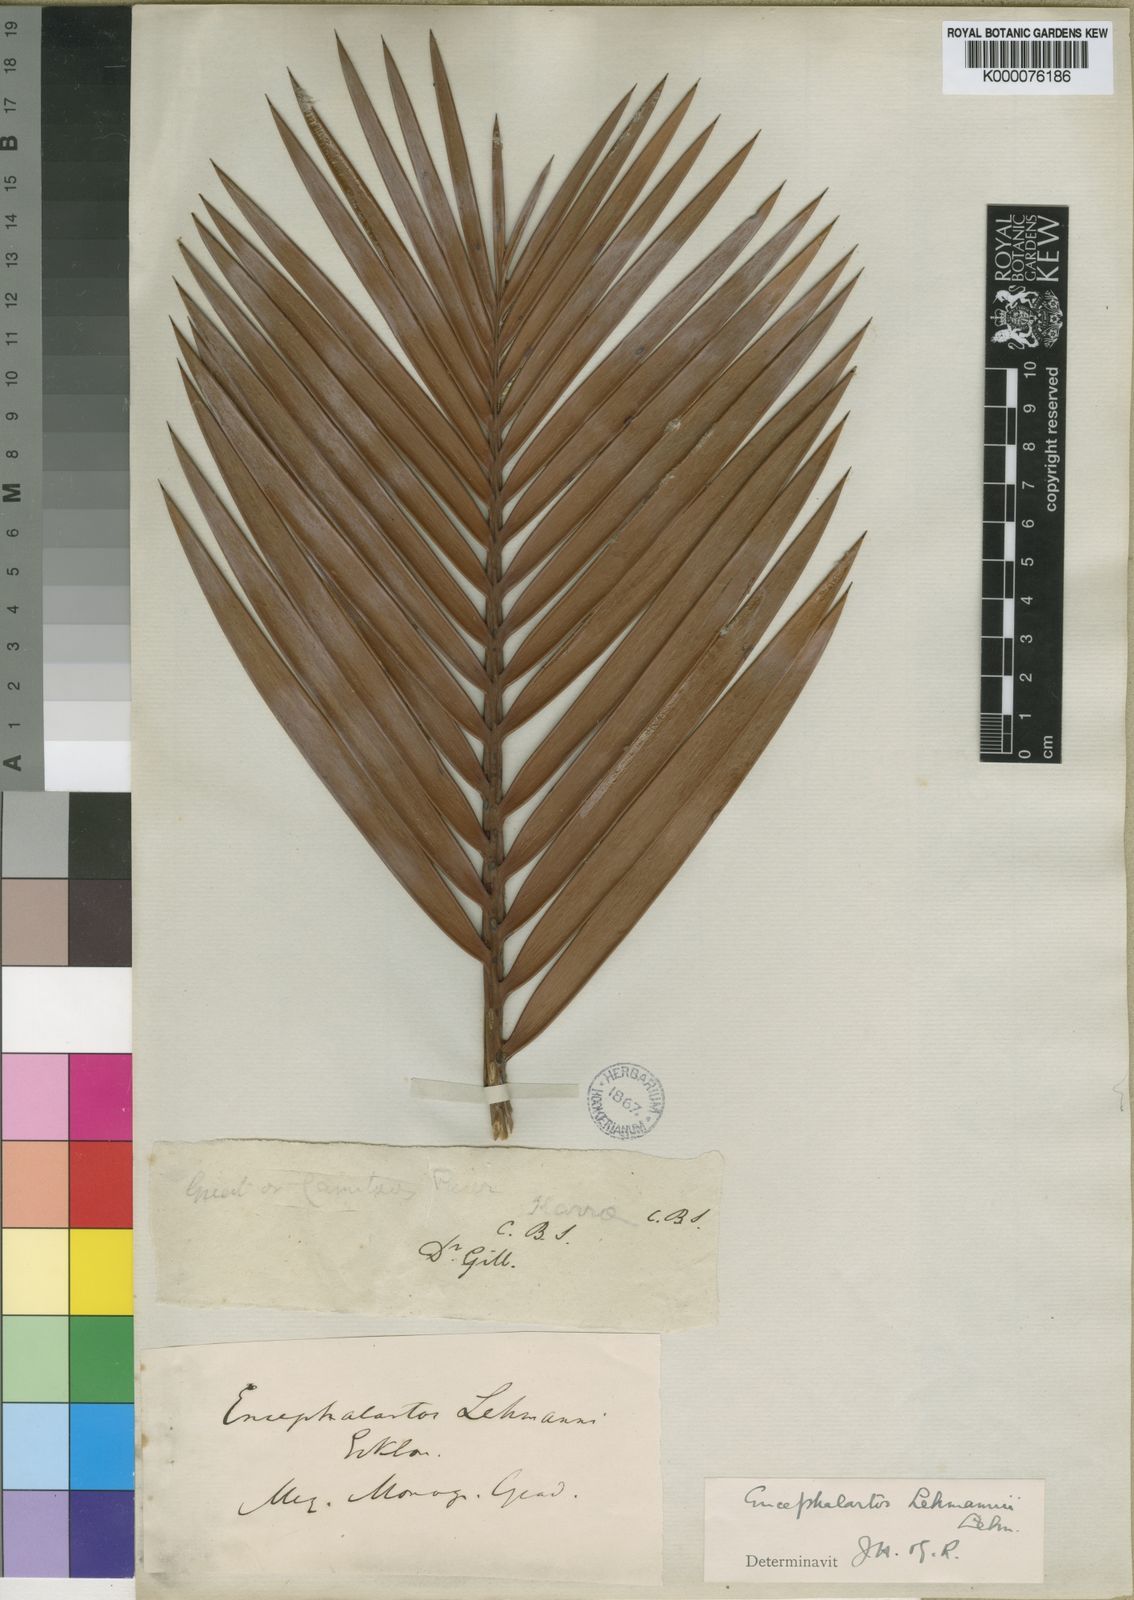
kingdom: Plantae
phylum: Tracheophyta
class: Cycadopsida
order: Cycadales
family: Zamiaceae
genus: Encephalartos
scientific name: Encephalartos lehmannii
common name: Karoo cycad
